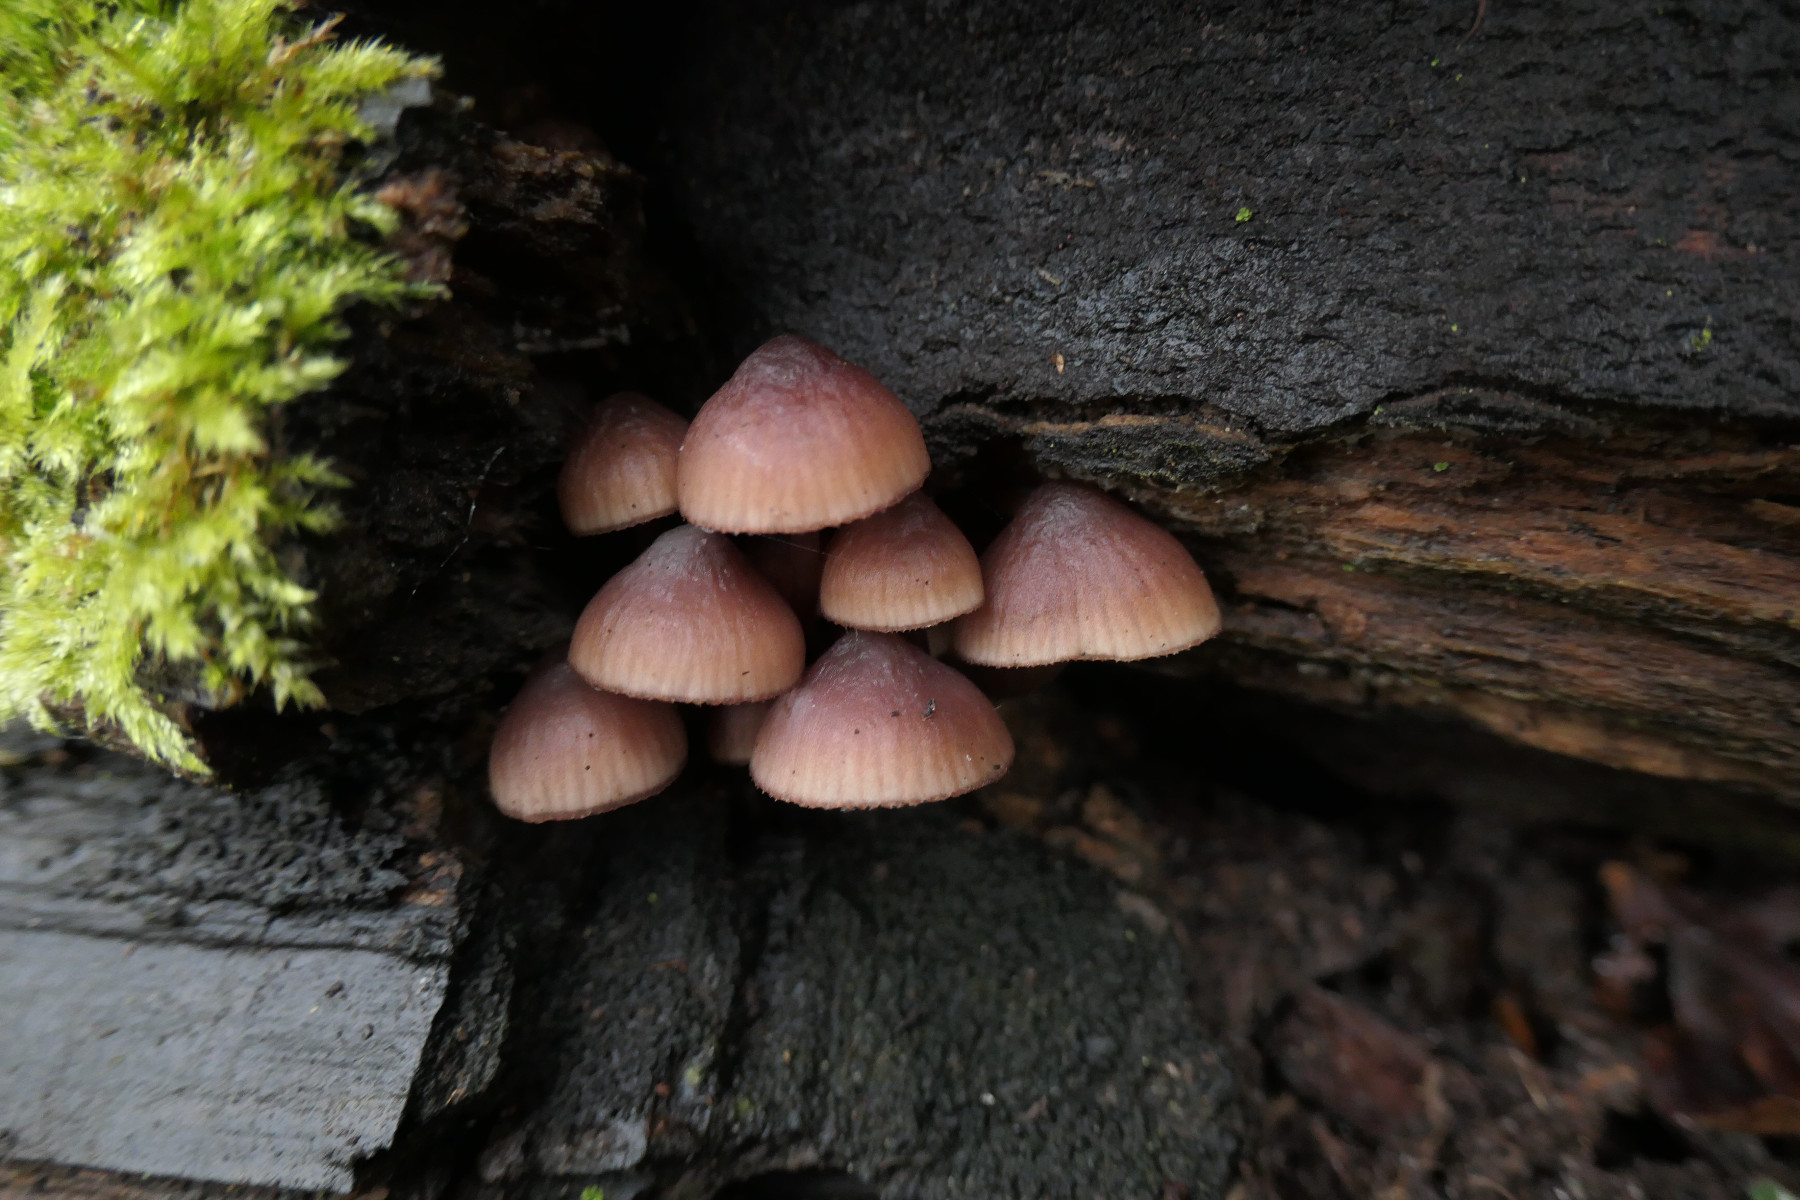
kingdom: Fungi
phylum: Basidiomycota
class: Agaricomycetes
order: Agaricales
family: Mycenaceae
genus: Mycena
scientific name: Mycena haematopus
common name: blødende huesvamp
